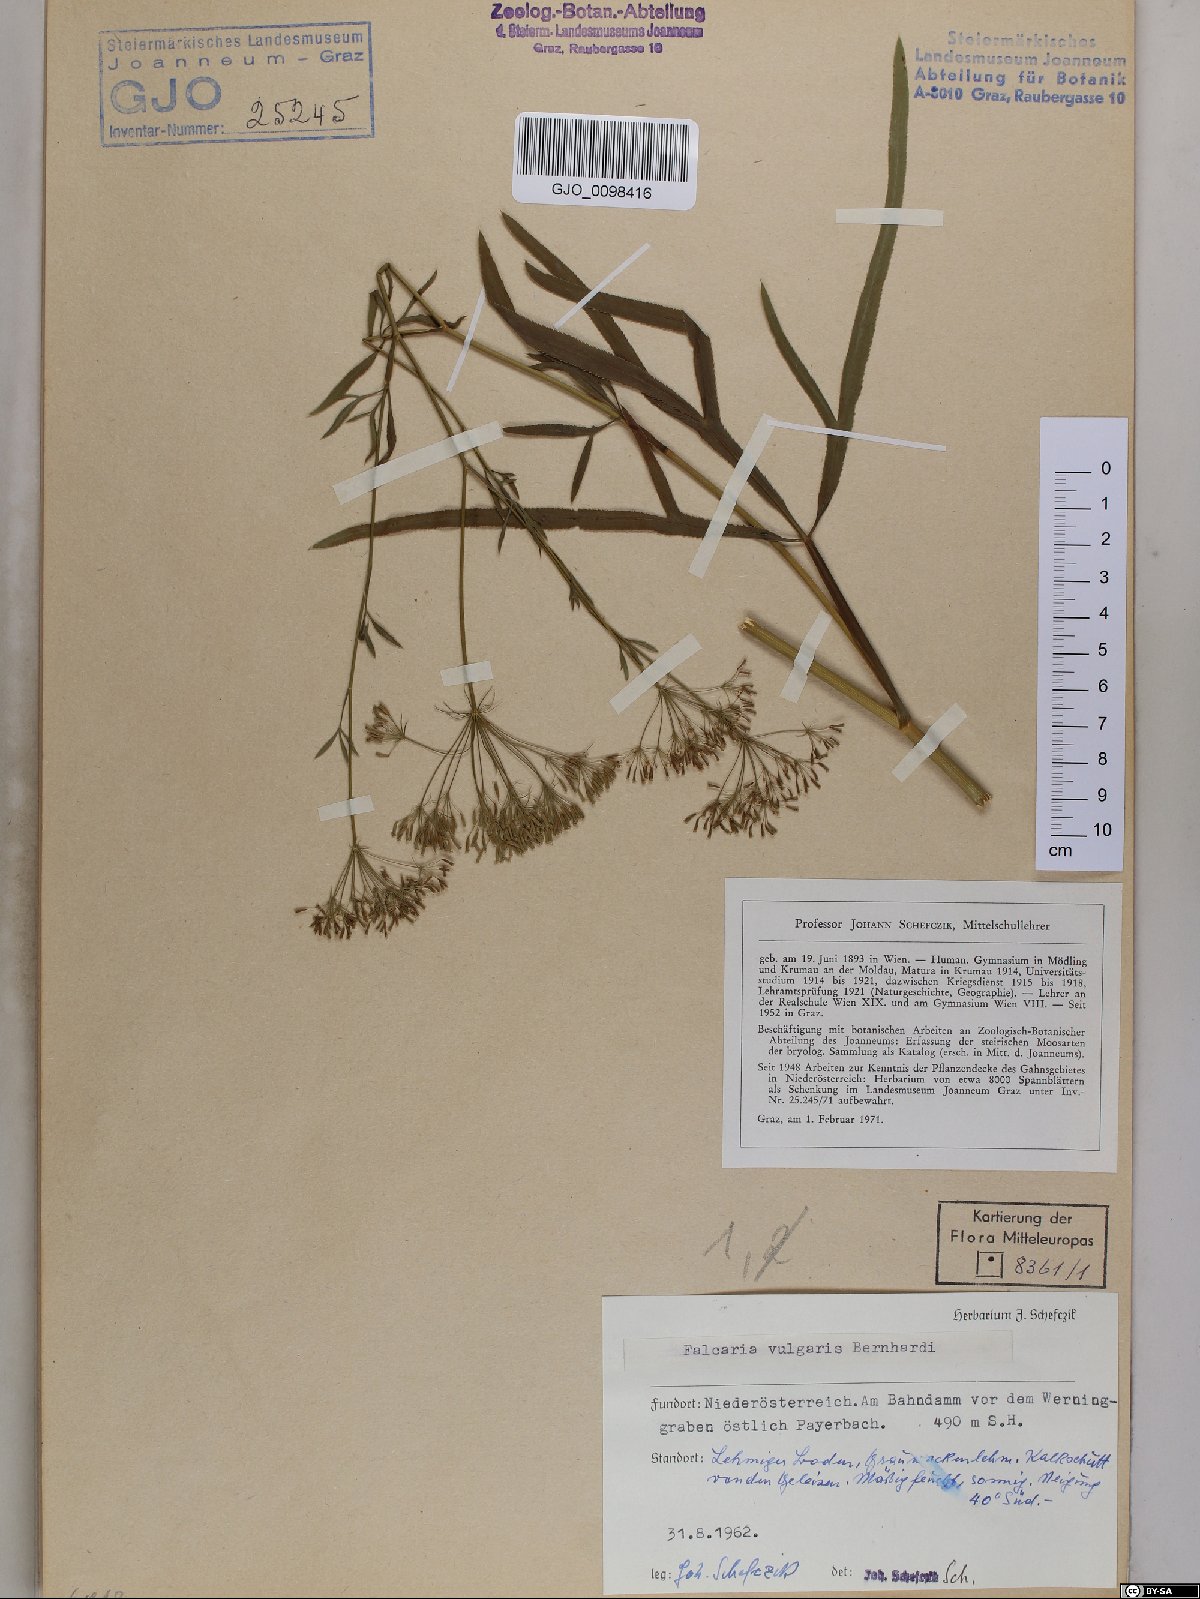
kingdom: Plantae
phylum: Tracheophyta
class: Magnoliopsida
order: Apiales
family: Apiaceae
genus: Falcaria
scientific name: Falcaria vulgaris
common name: Longleaf
